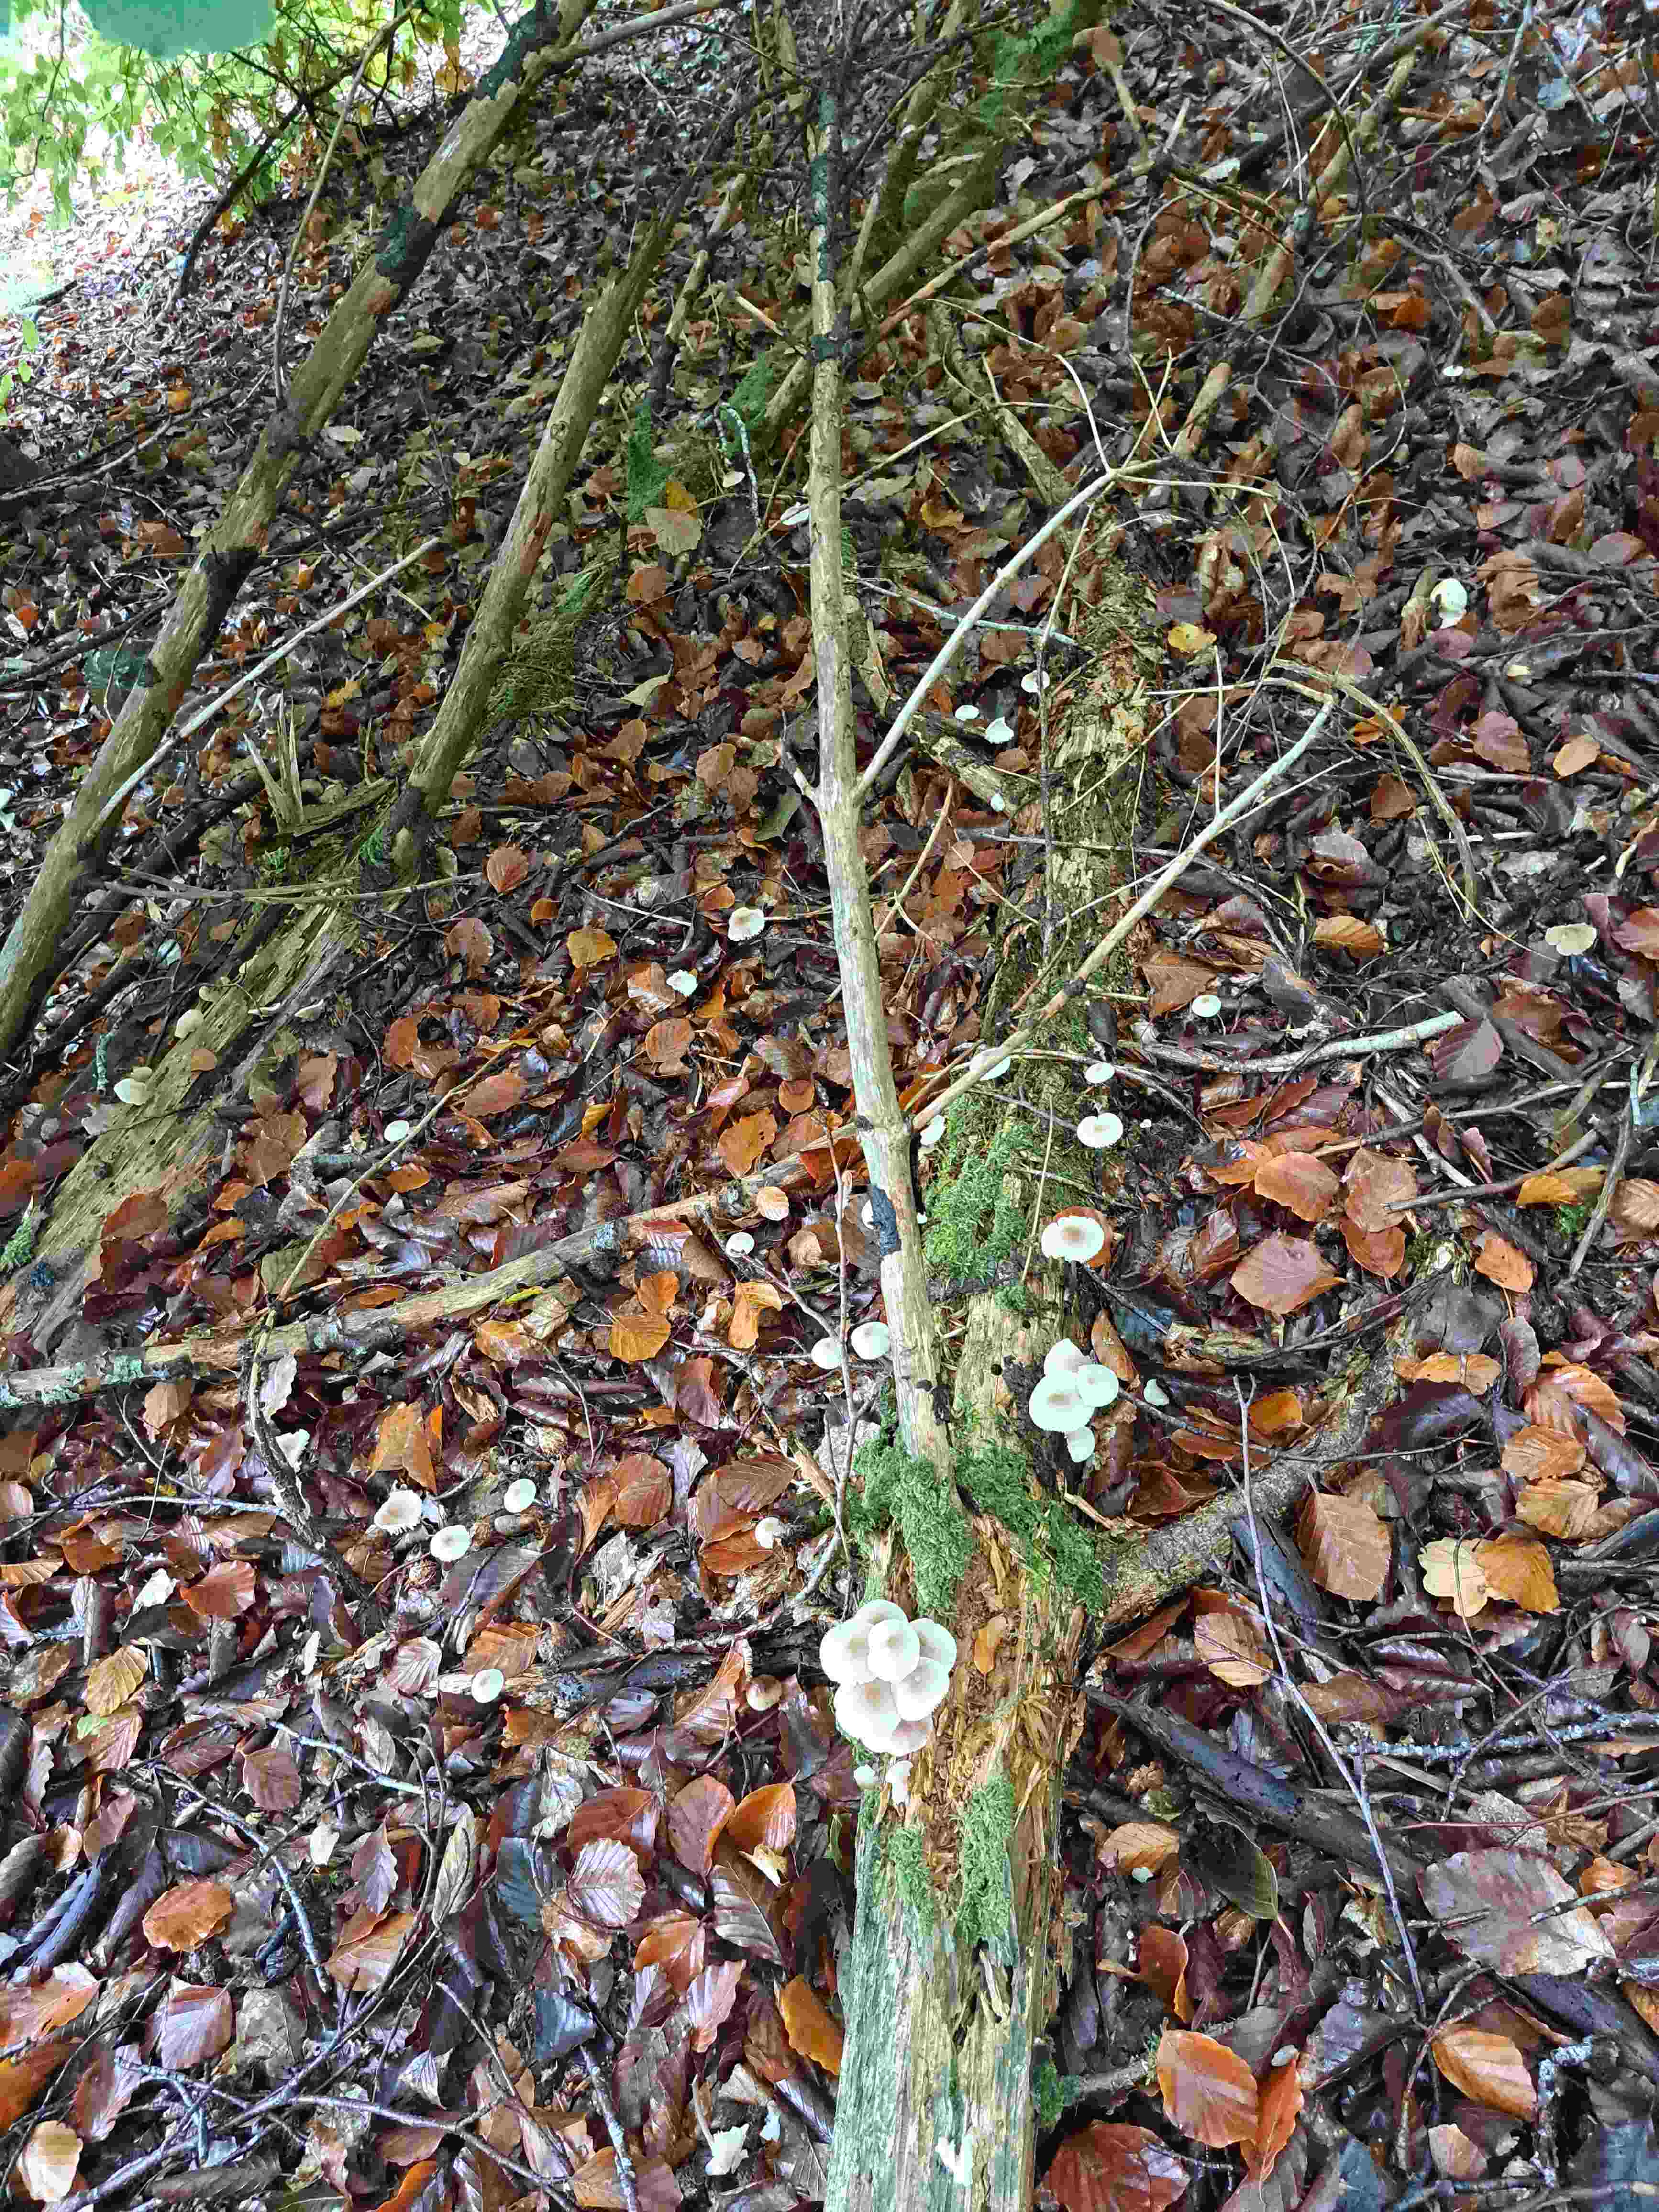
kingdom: Fungi
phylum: Basidiomycota
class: Agaricomycetes
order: Agaricales
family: Mycenaceae
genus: Mycena
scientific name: Mycena zephirus
